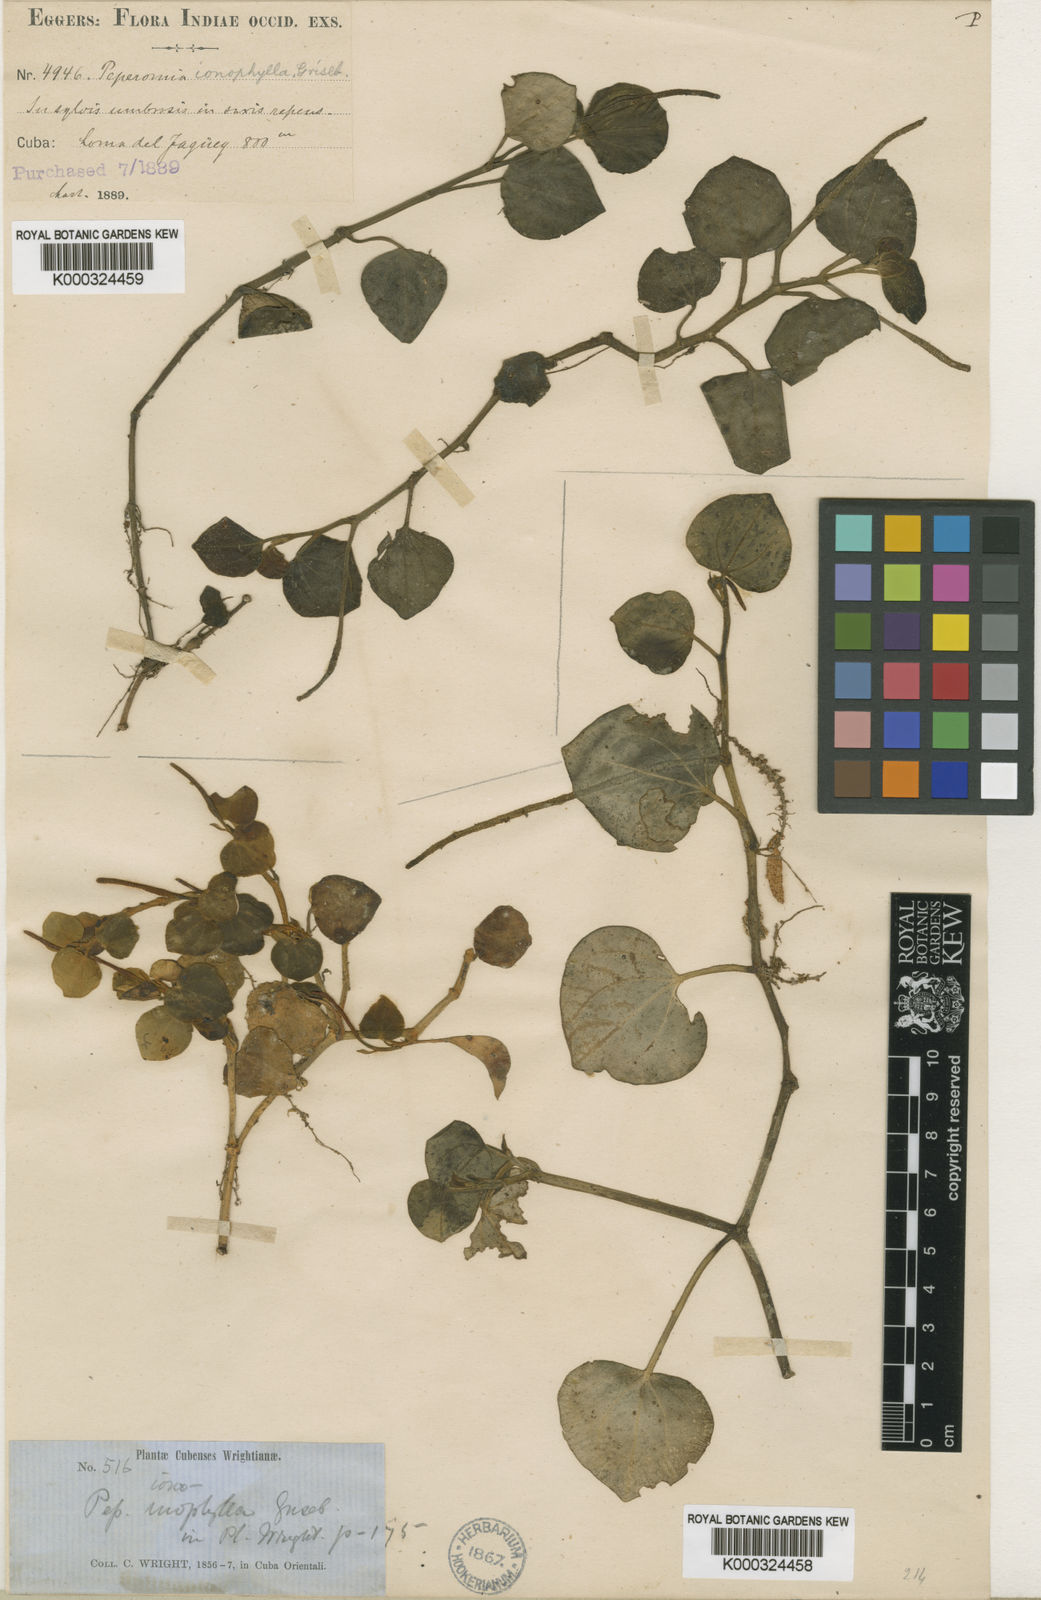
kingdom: Plantae
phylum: Tracheophyta
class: Magnoliopsida
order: Piperales
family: Piperaceae
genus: Peperomia
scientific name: Peperomia serpens
